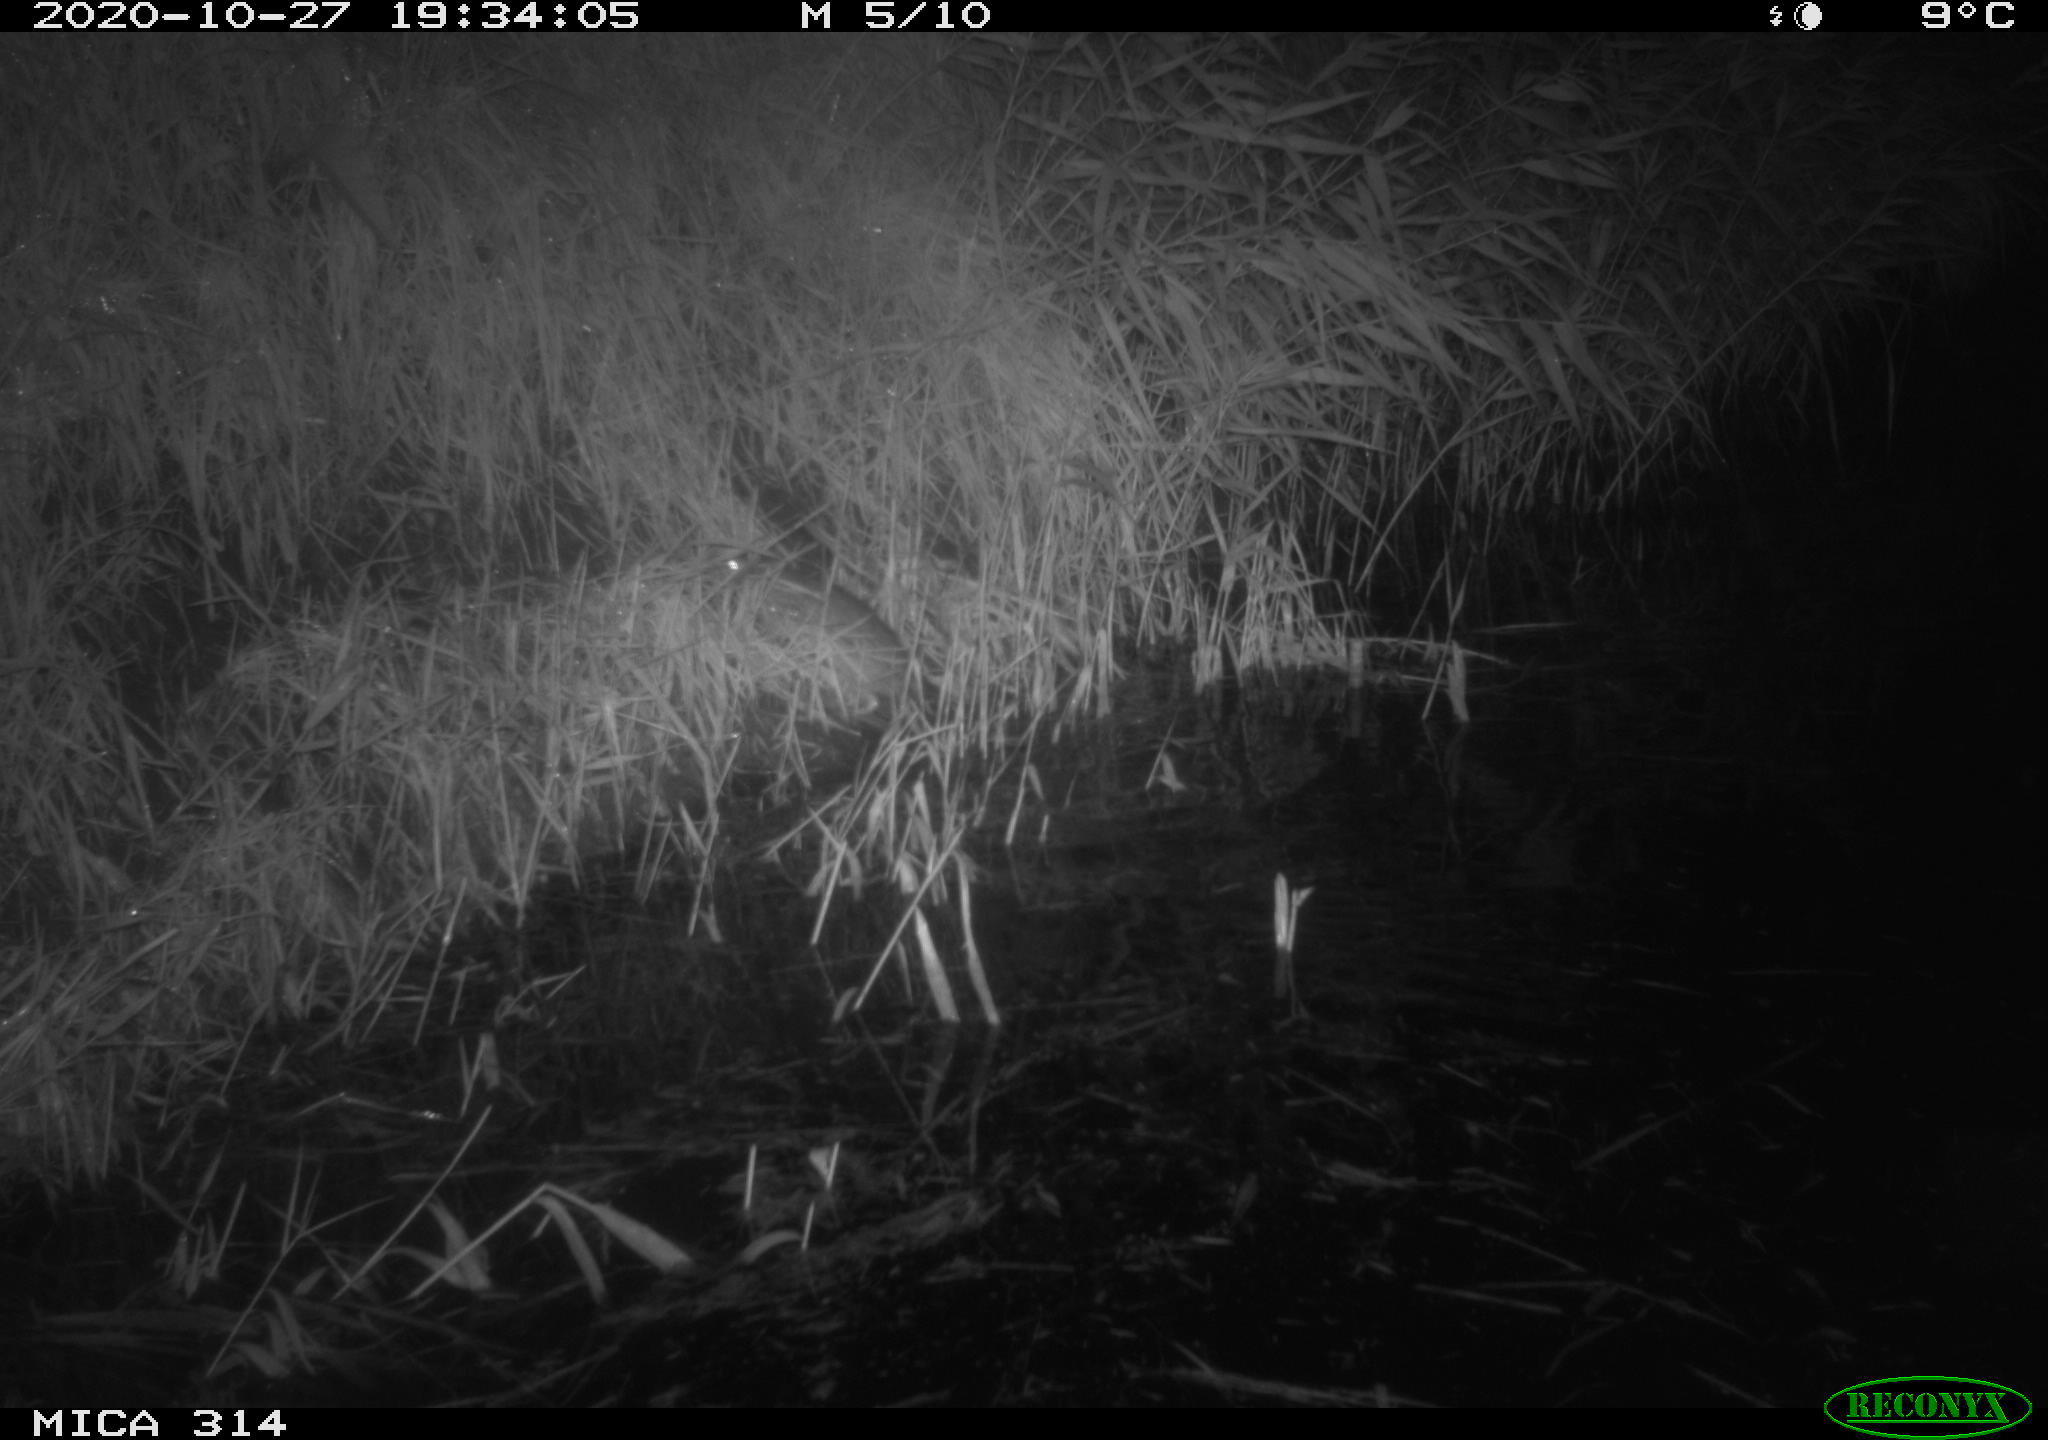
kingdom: Animalia
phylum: Chordata
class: Mammalia
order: Rodentia
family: Muridae
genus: Rattus
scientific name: Rattus norvegicus
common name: Brown rat
